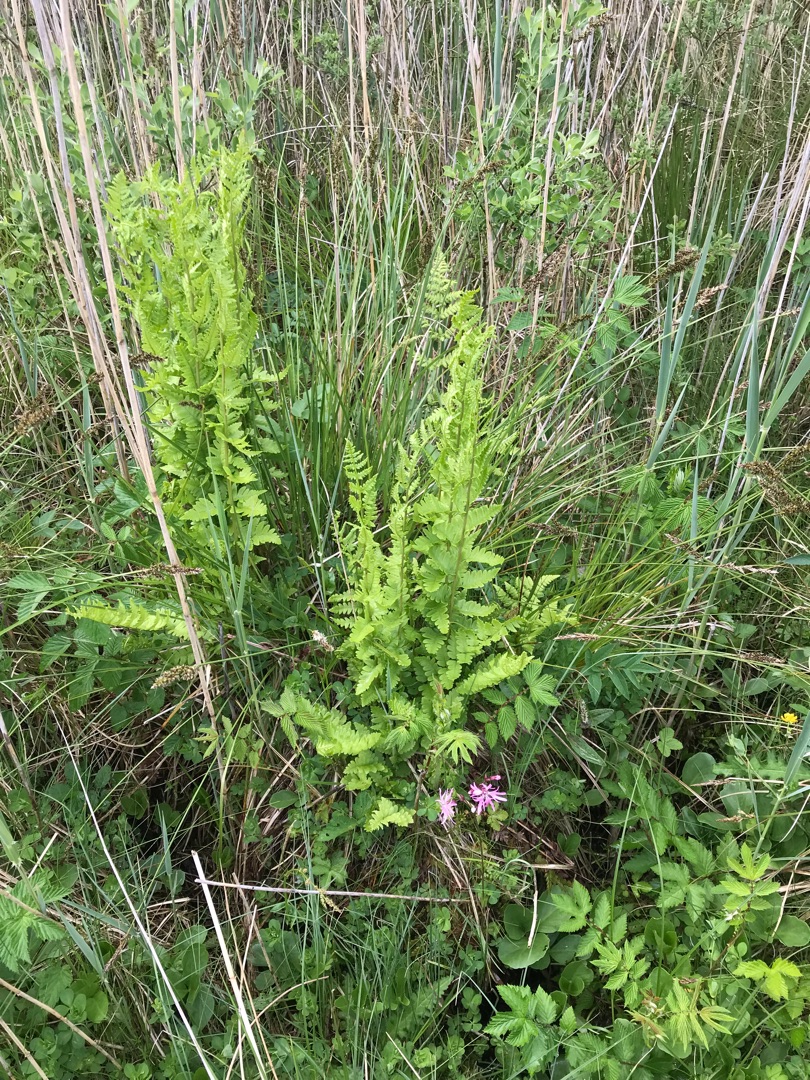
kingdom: Plantae
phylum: Tracheophyta
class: Polypodiopsida
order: Polypodiales
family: Dryopteridaceae
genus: Dryopteris
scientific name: Dryopteris cristata
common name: Butfinnet mangeløv
